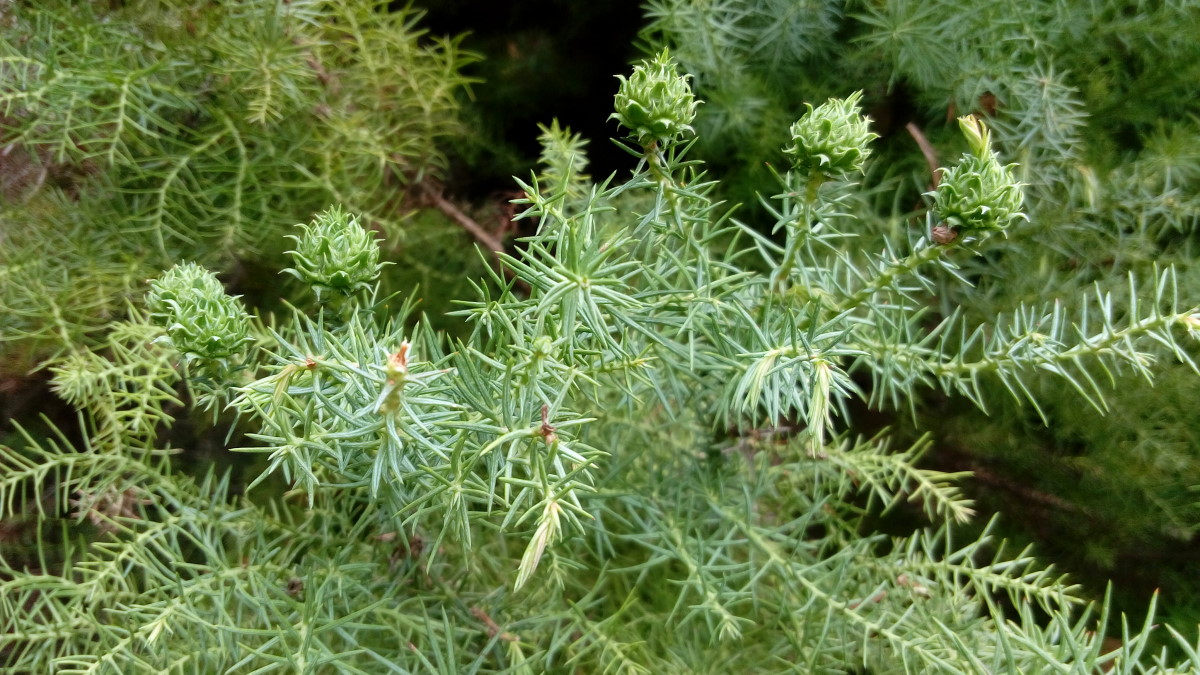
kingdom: Plantae
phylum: Tracheophyta
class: Pinopsida
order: Pinales
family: Cupressaceae
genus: Cryptomeria
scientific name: Cryptomeria japonica
